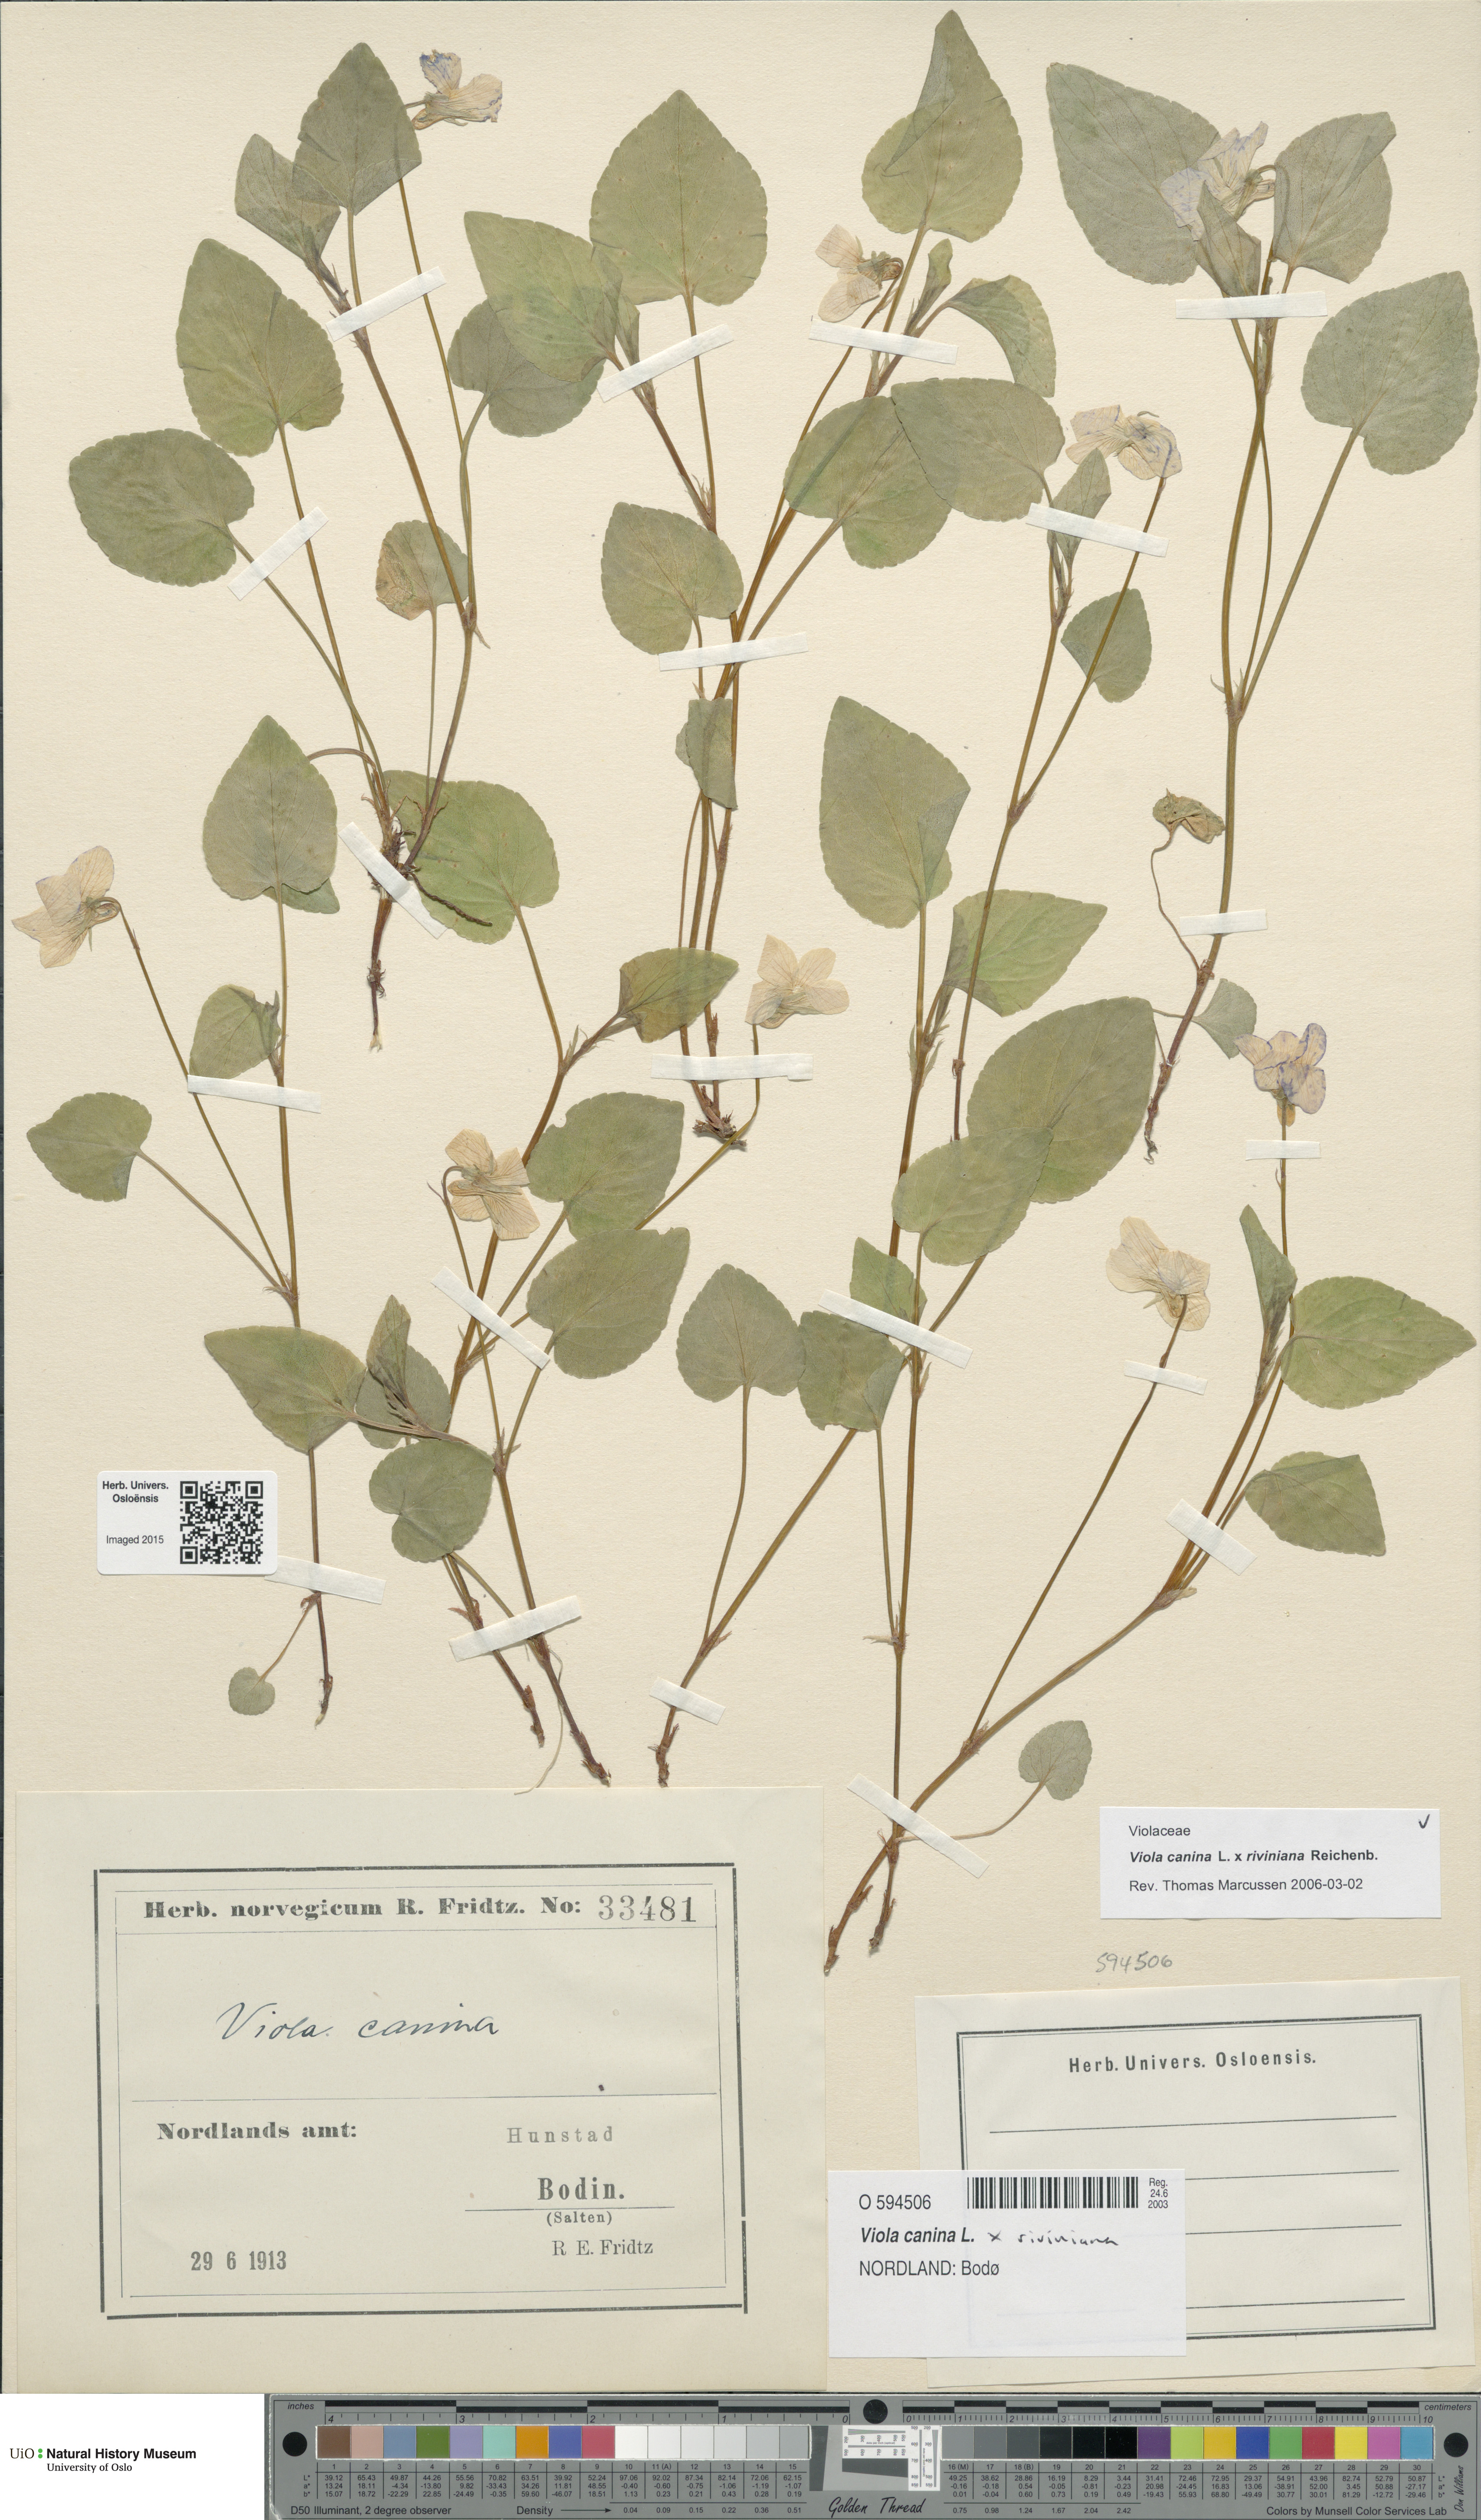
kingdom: Plantae
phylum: Tracheophyta
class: Magnoliopsida
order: Malpighiales
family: Violaceae
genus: Viola
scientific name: Viola
